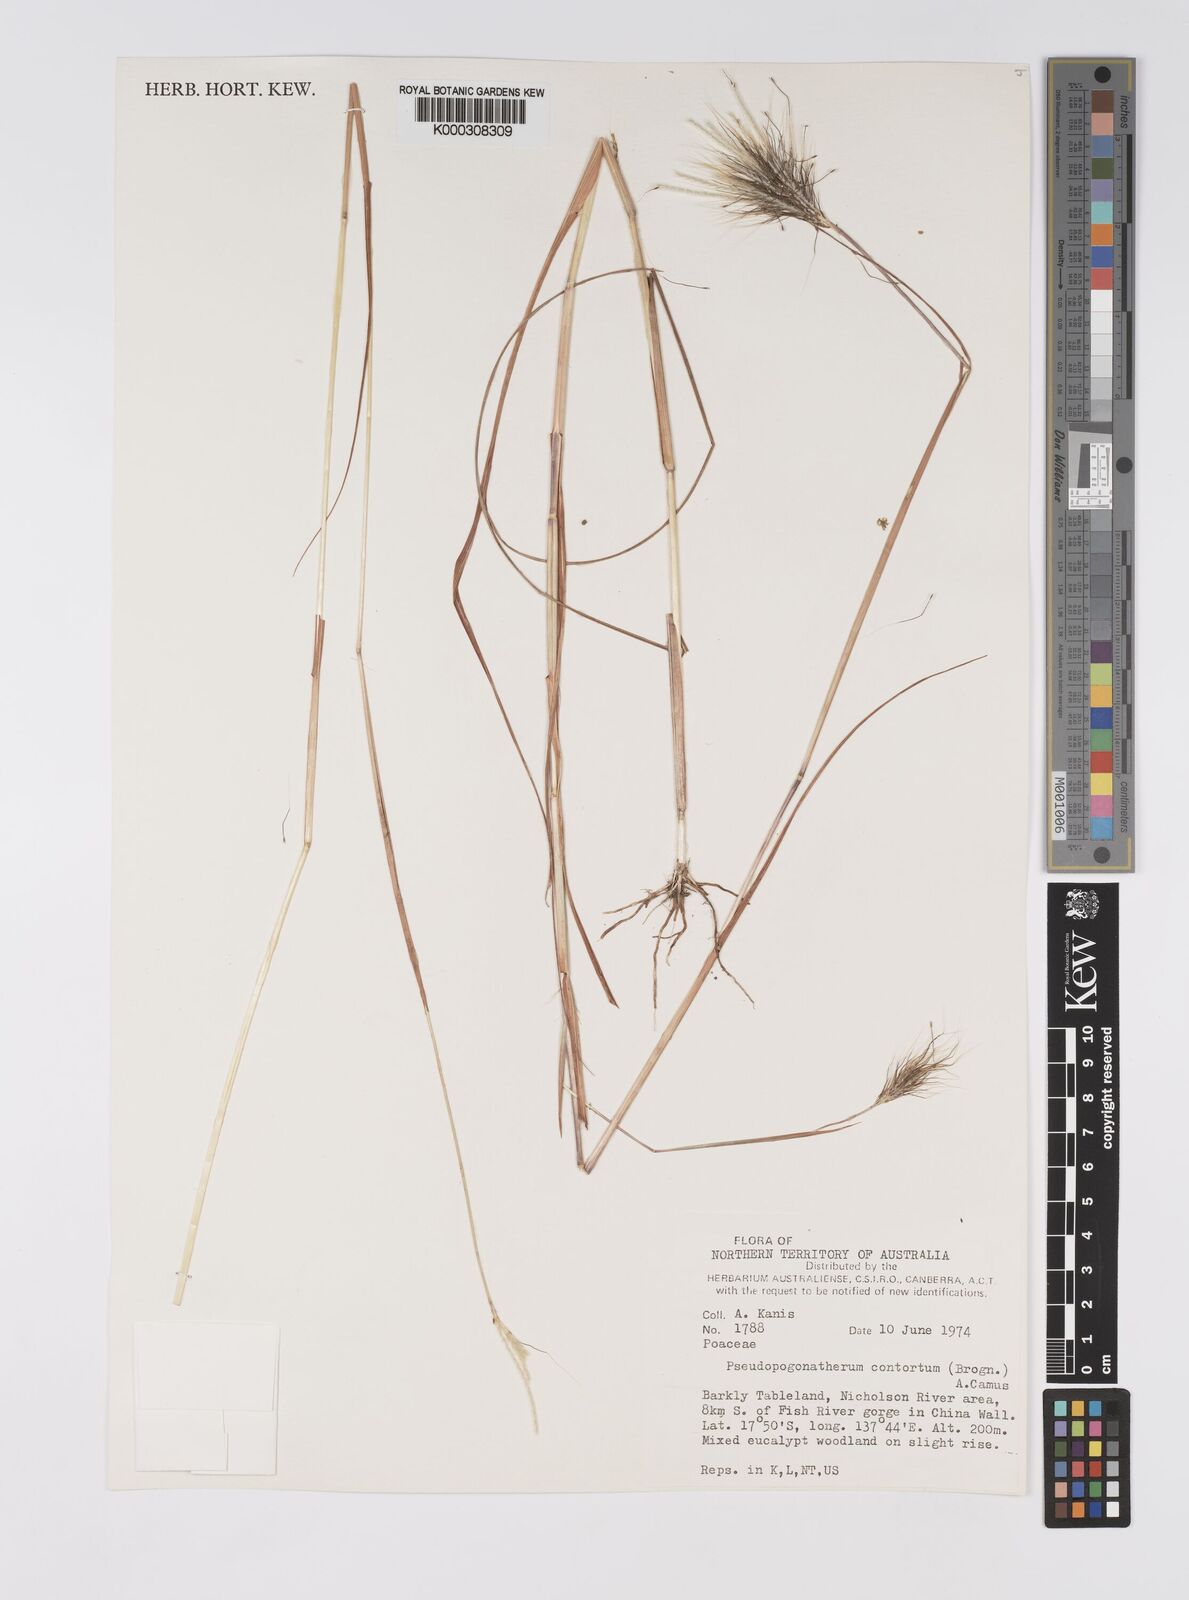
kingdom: Plantae
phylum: Tracheophyta
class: Liliopsida
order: Poales
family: Poaceae
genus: Eulalia
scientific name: Eulalia
